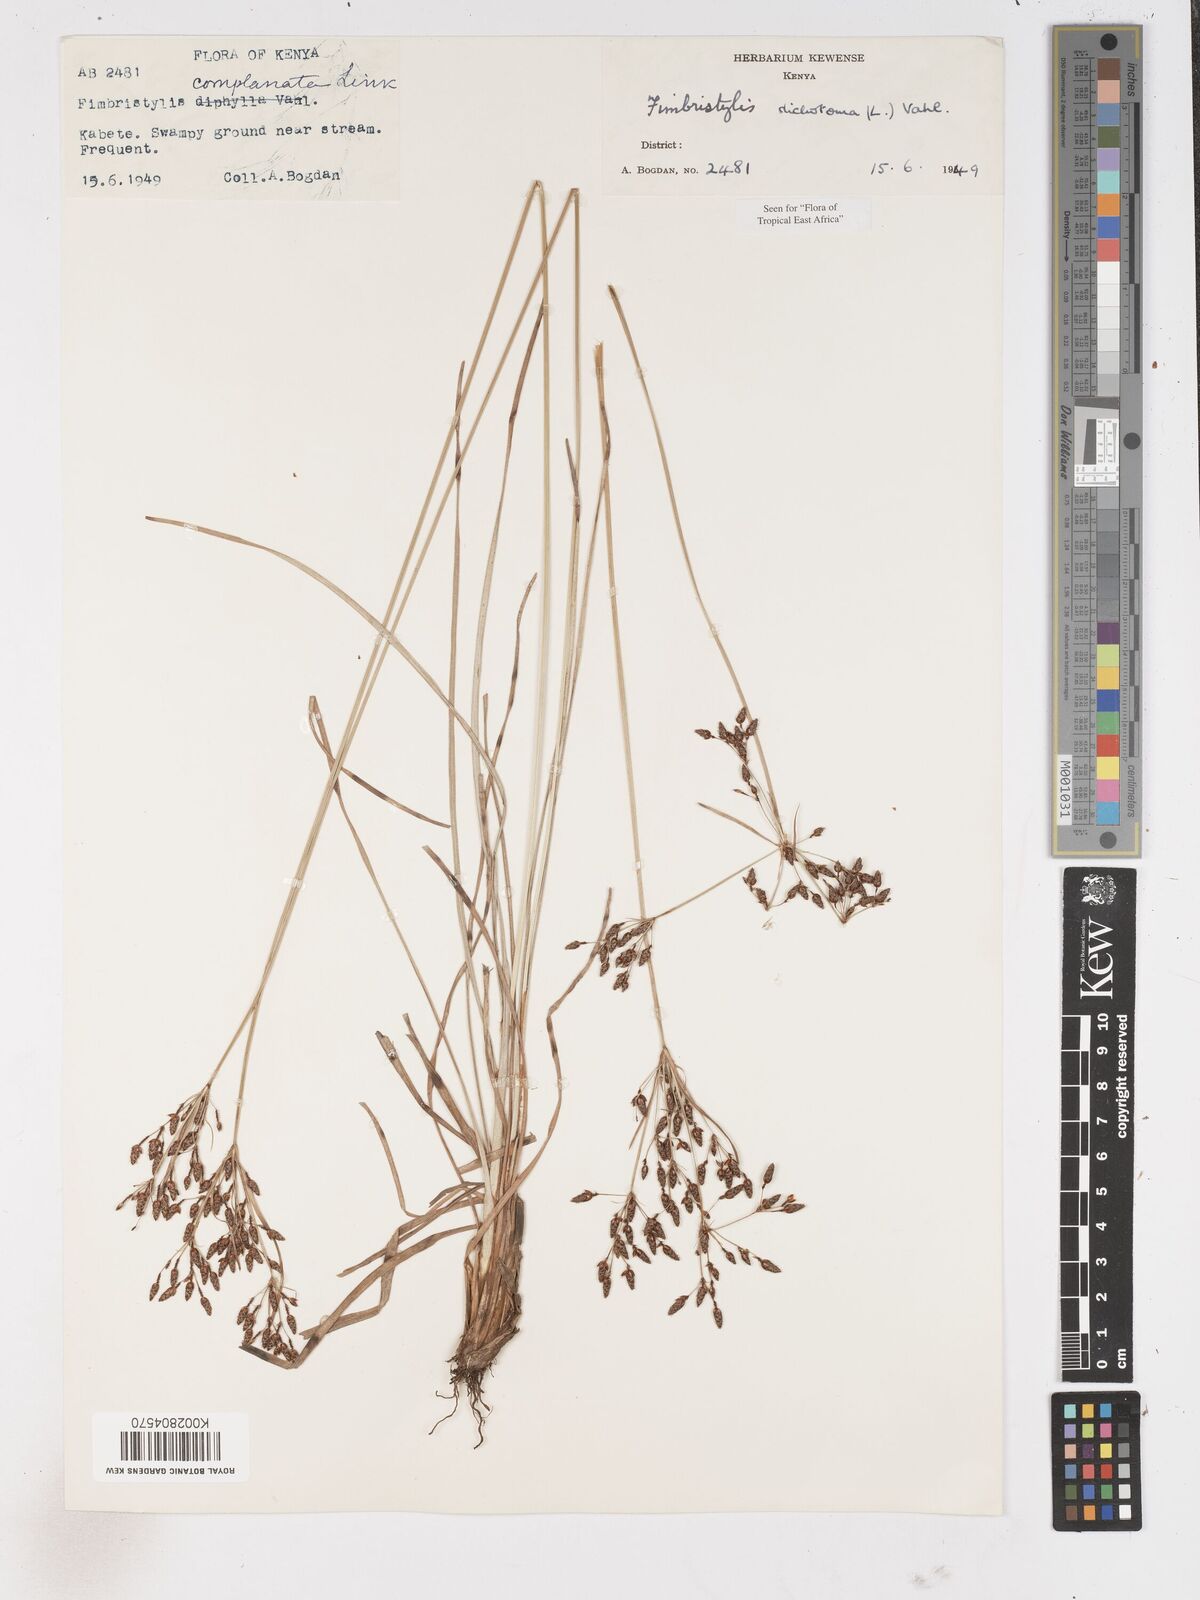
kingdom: Plantae
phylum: Tracheophyta
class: Liliopsida
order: Poales
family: Cyperaceae
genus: Fimbristylis
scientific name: Fimbristylis dichotoma
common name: Forked fimbry
